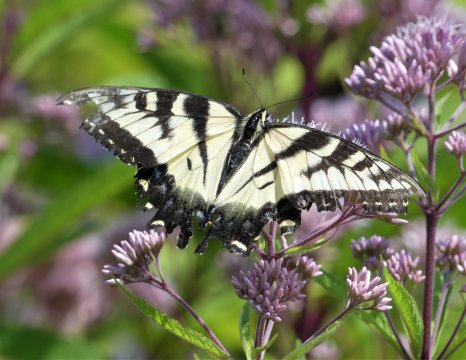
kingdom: Animalia
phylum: Arthropoda
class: Insecta
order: Lepidoptera
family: Papilionidae
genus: Pterourus
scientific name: Pterourus glaucus
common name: Eastern Tiger Swallowtail
